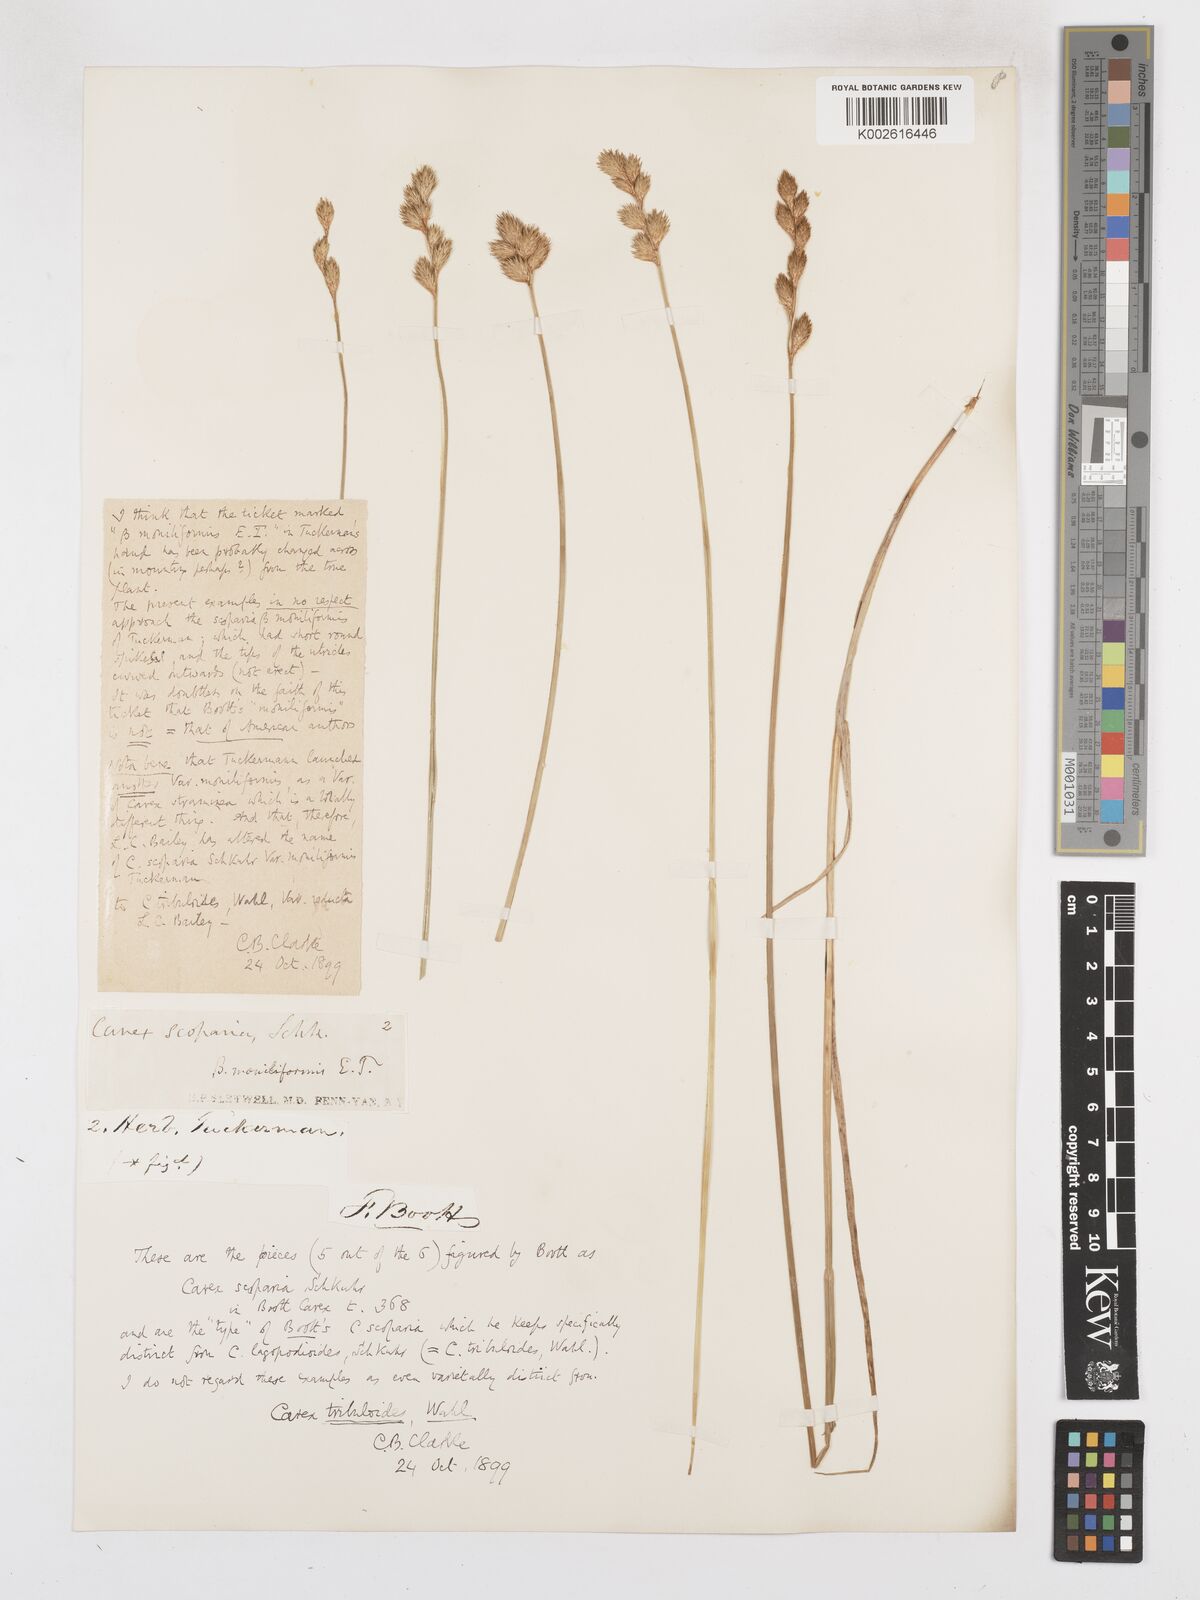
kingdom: Plantae
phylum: Tracheophyta
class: Liliopsida
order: Poales
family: Cyperaceae
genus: Carex
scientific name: Carex tribuloides
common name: Blunt broom sedge
